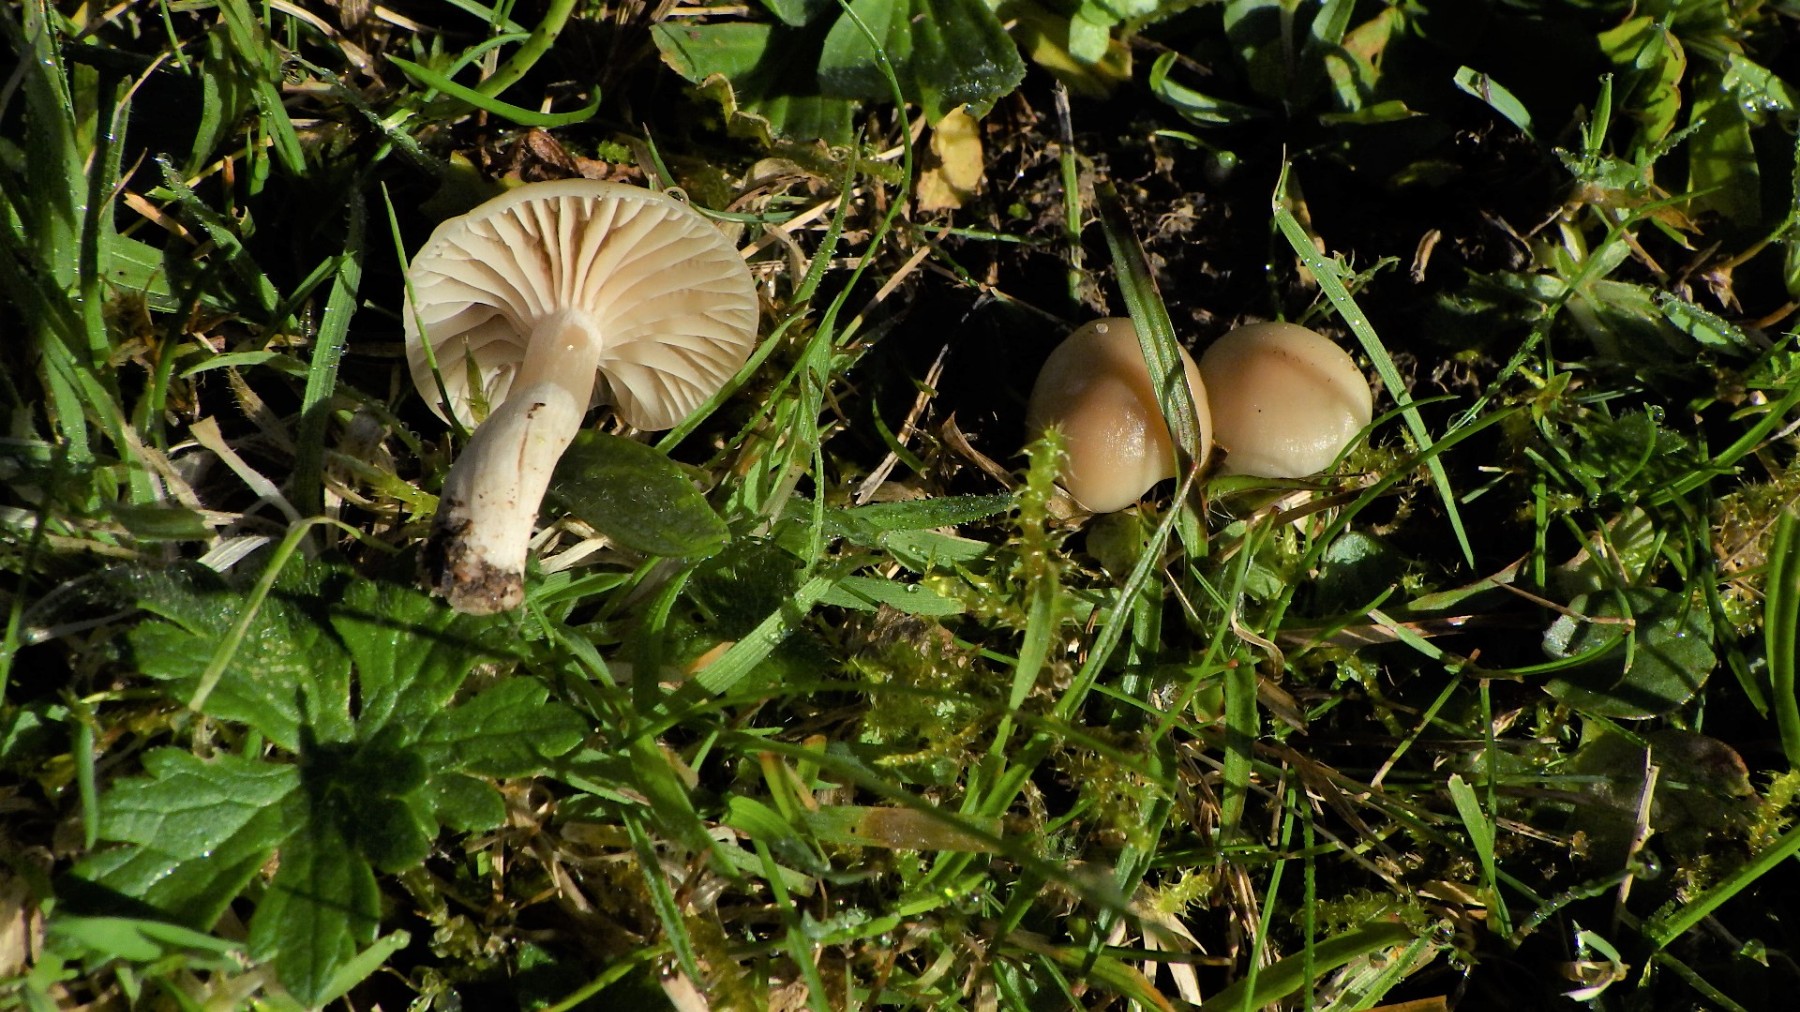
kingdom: Fungi
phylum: Basidiomycota
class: Agaricomycetes
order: Agaricales
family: Hygrophoraceae
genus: Cuphophyllus
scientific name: Cuphophyllus virgineus
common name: isabella-vokshat
